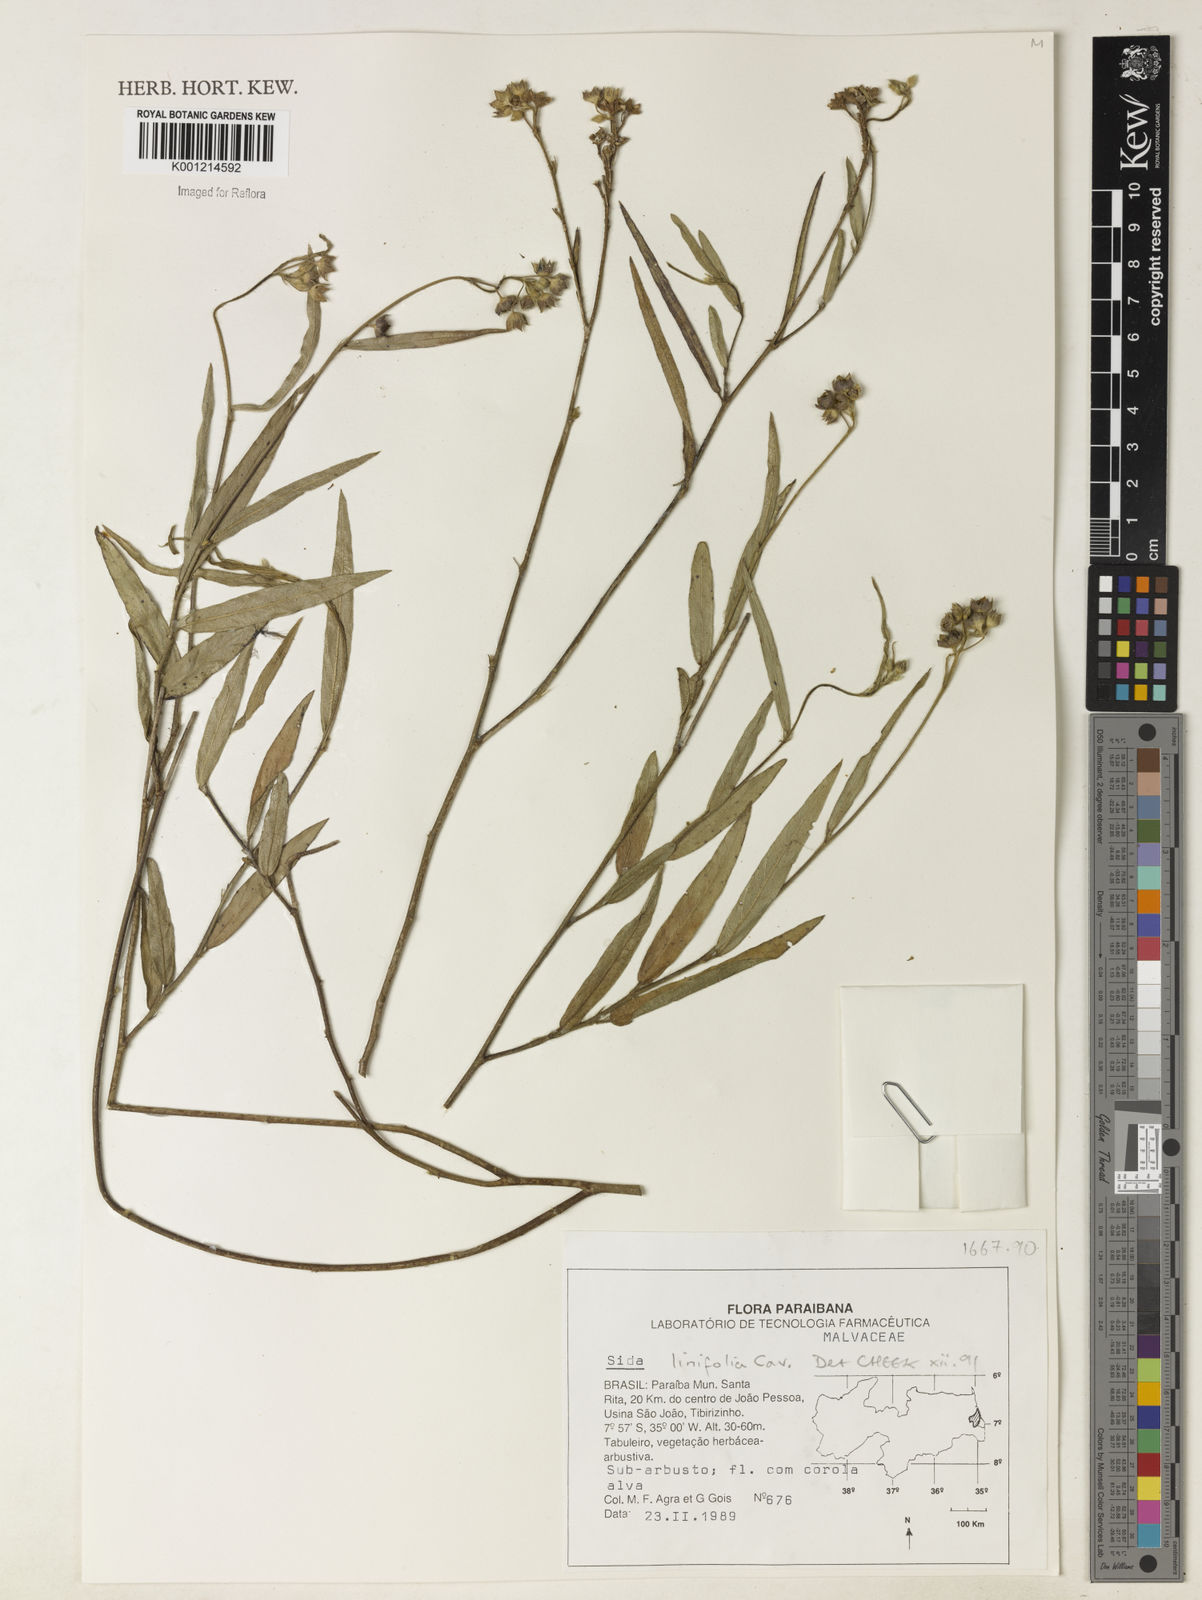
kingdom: Plantae
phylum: Tracheophyta
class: Magnoliopsida
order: Malvales
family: Malvaceae
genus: Sida
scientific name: Sida linifolia
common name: Flaxleaf fanpetals
